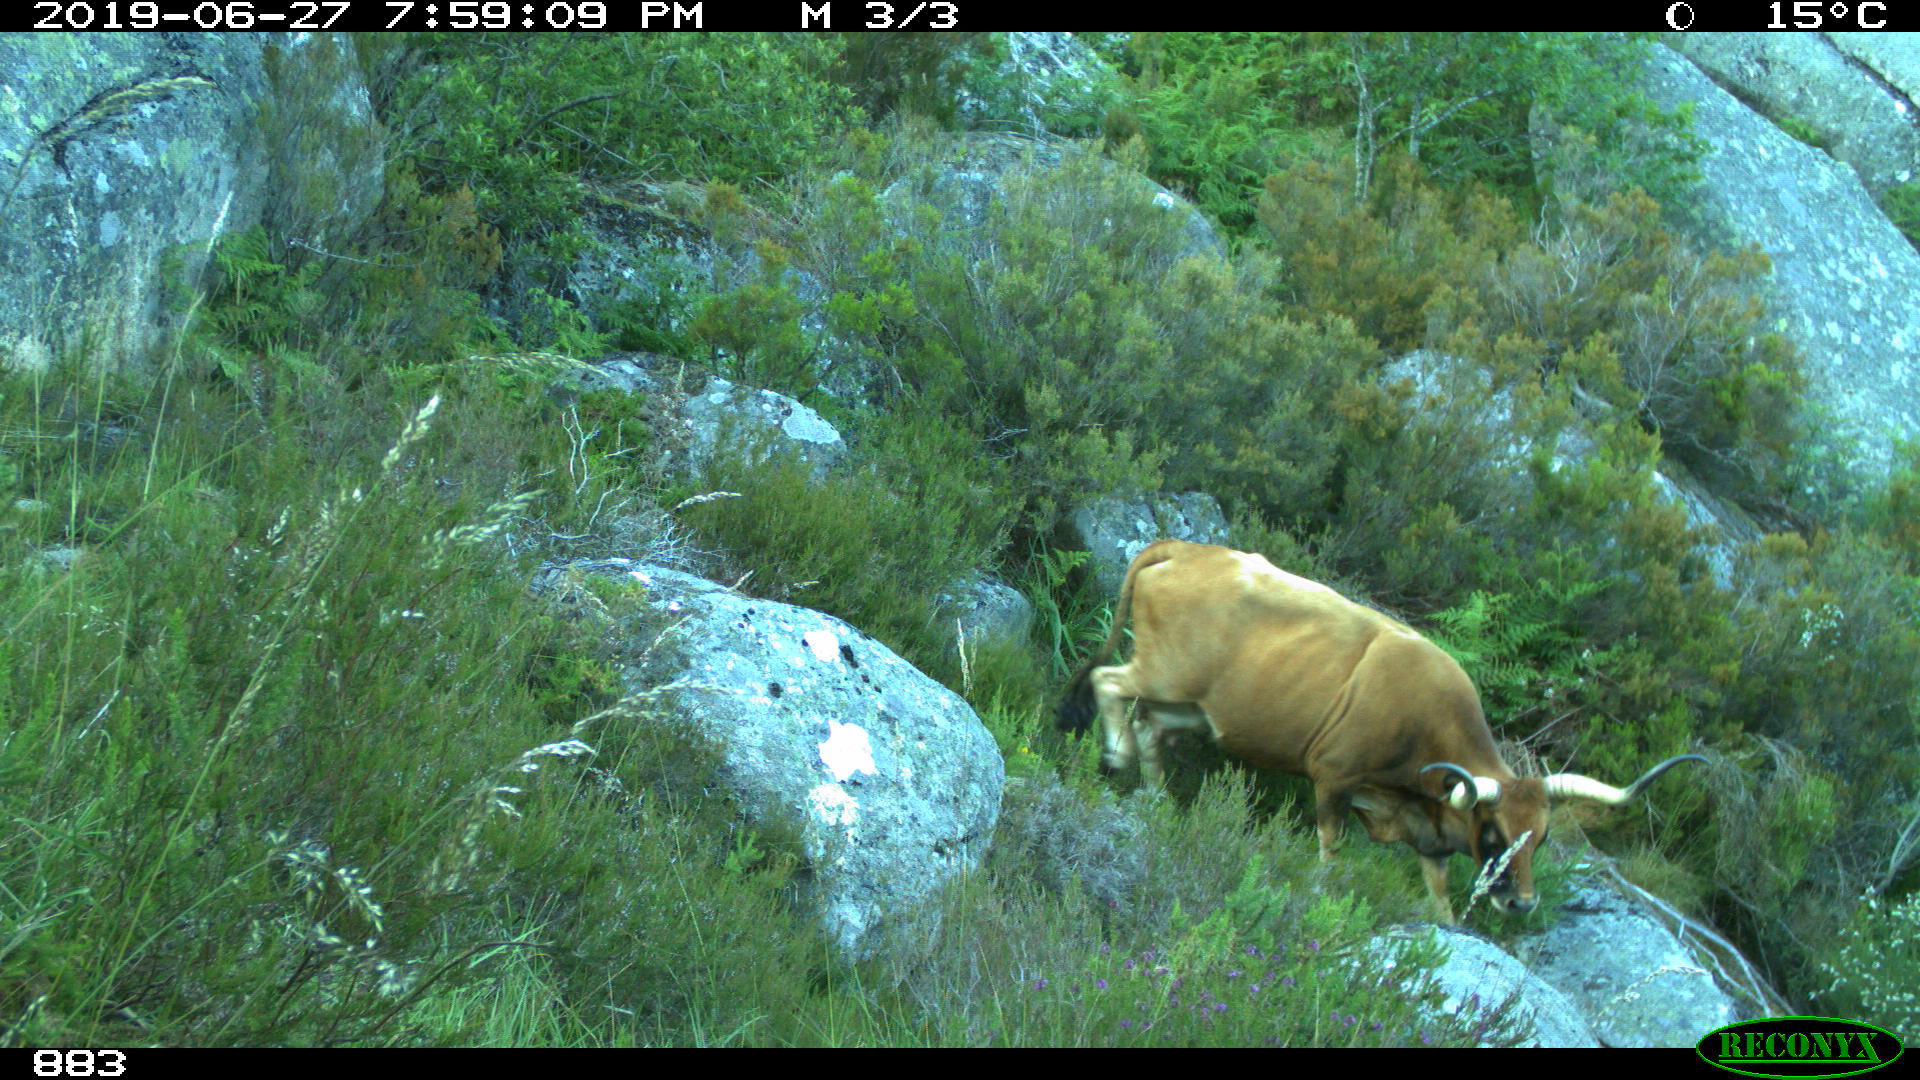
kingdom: Animalia
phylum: Chordata
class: Mammalia
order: Artiodactyla
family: Bovidae
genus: Bos
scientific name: Bos taurus
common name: Domesticated cattle
